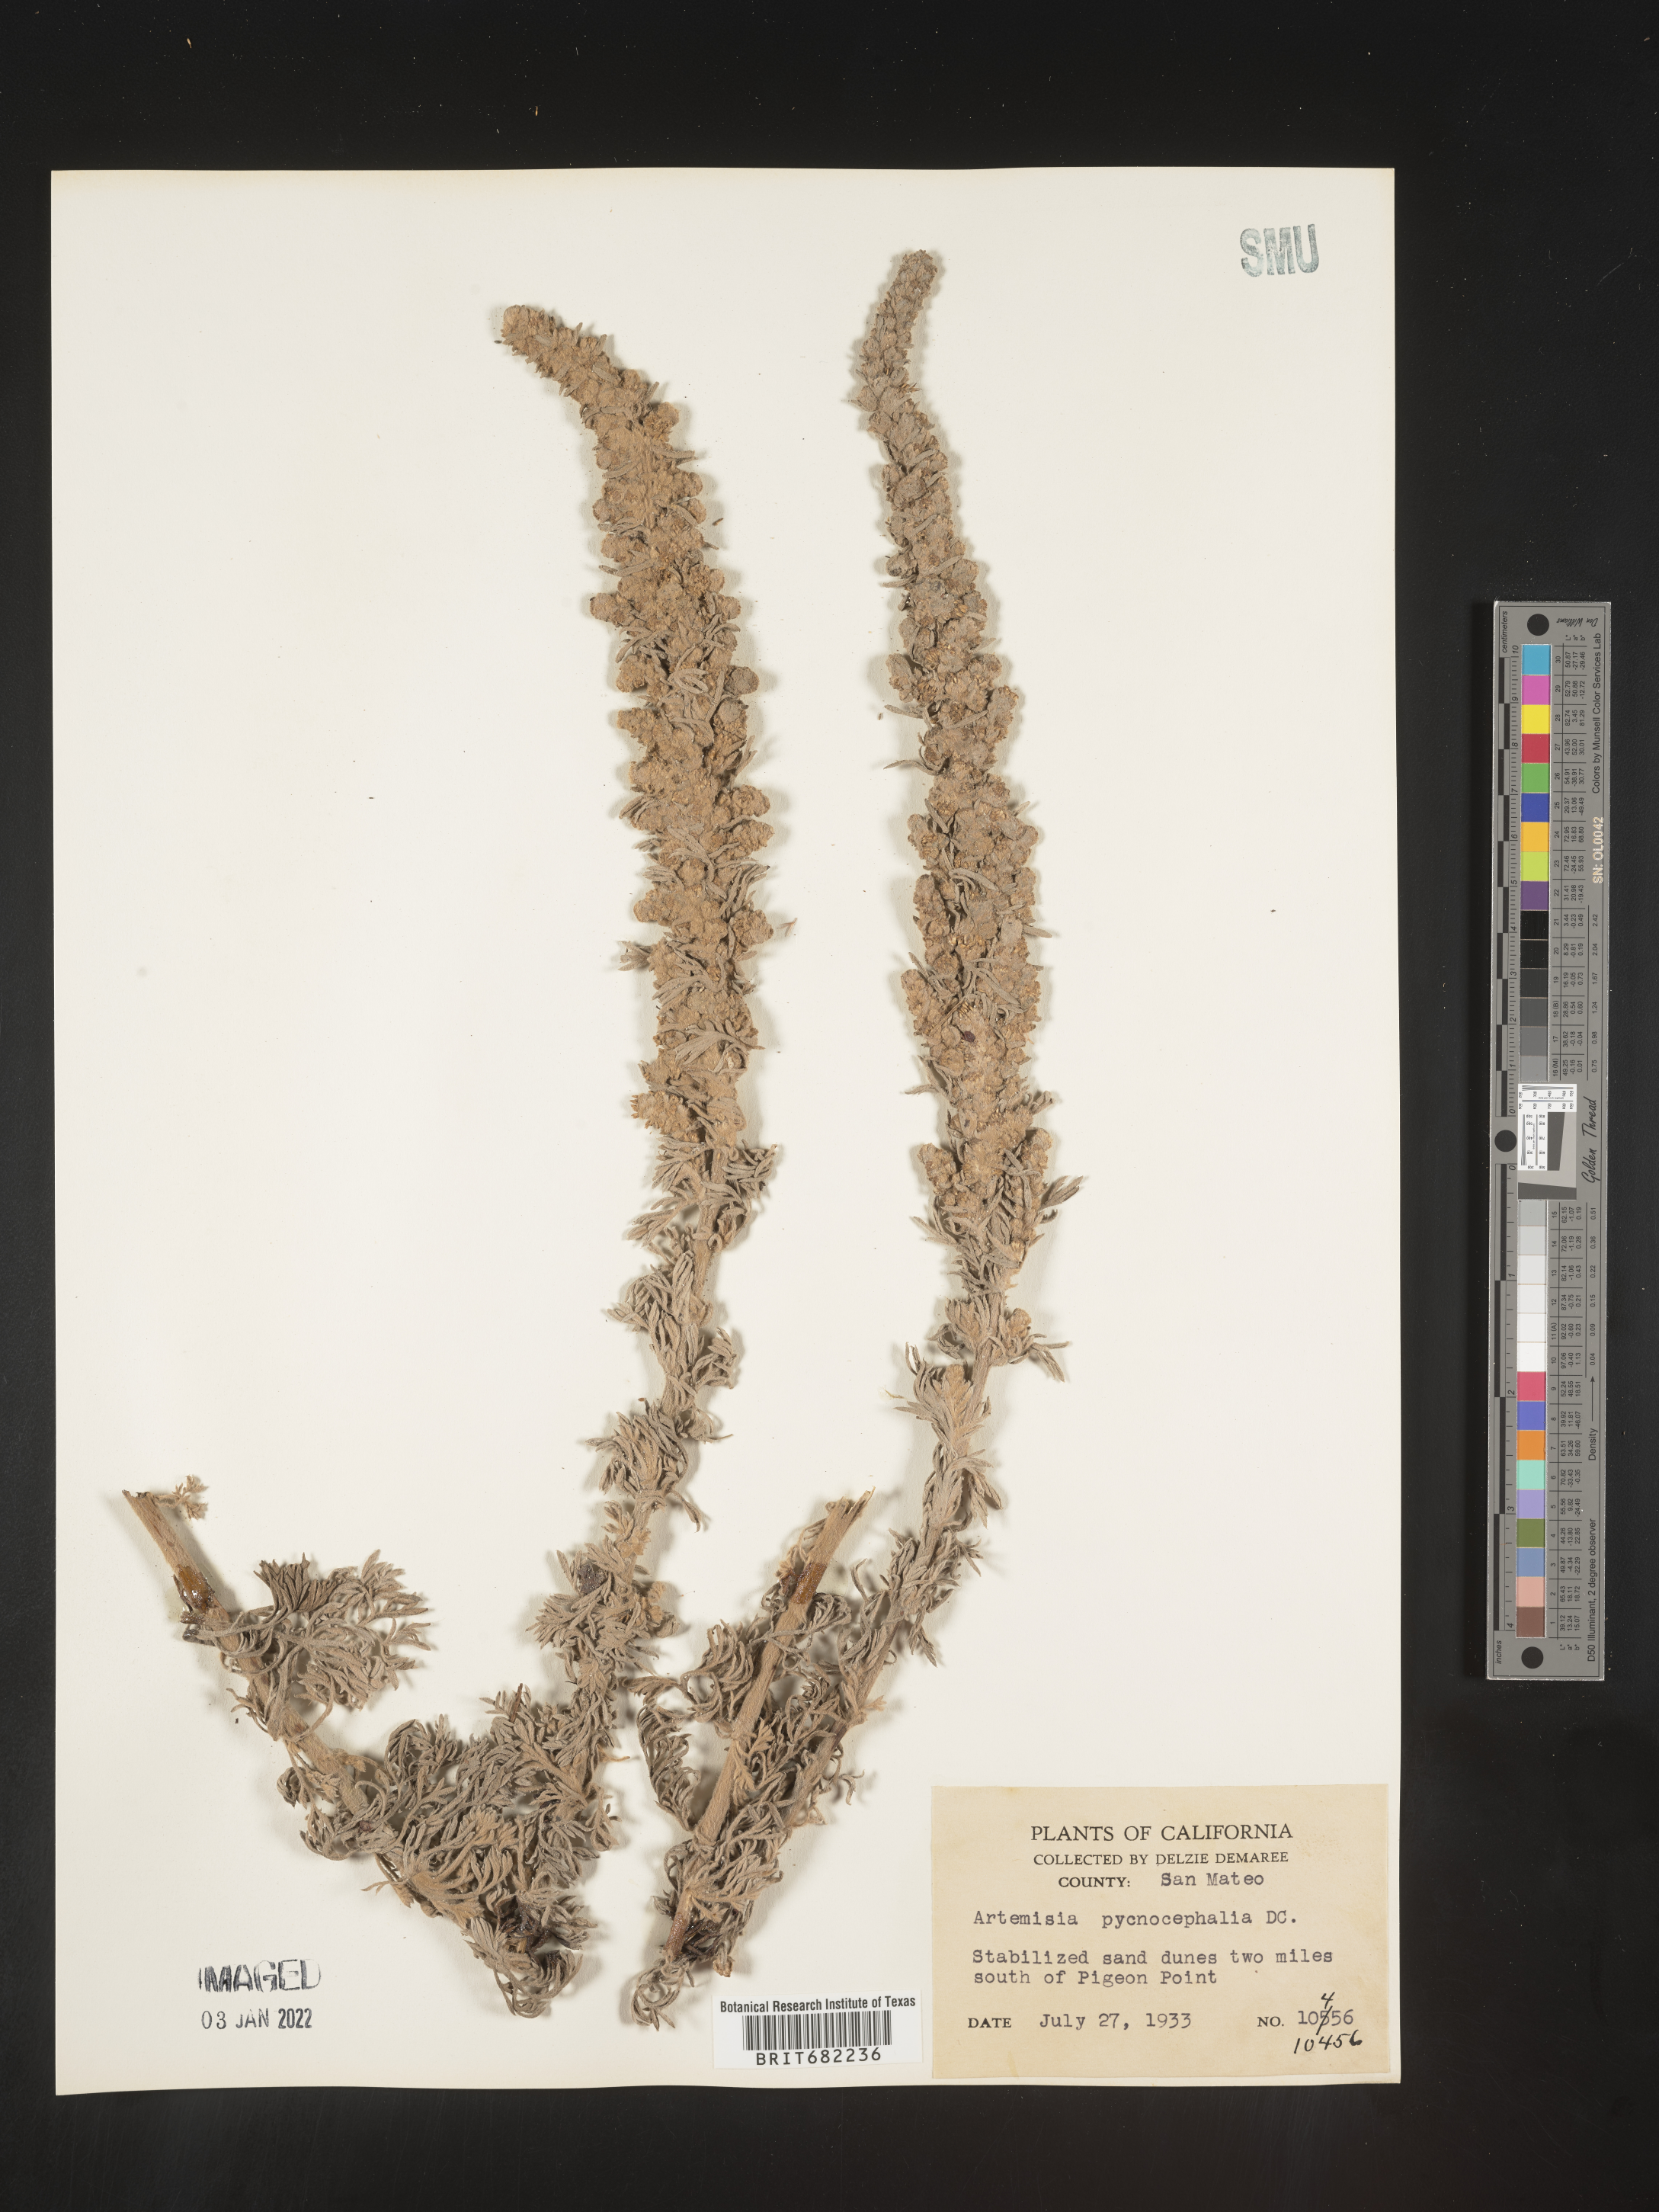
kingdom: Plantae
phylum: Tracheophyta
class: Magnoliopsida
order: Asterales
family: Asteraceae
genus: Artemisia
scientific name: Artemisia pycnocephala
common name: Coastal sagewort
